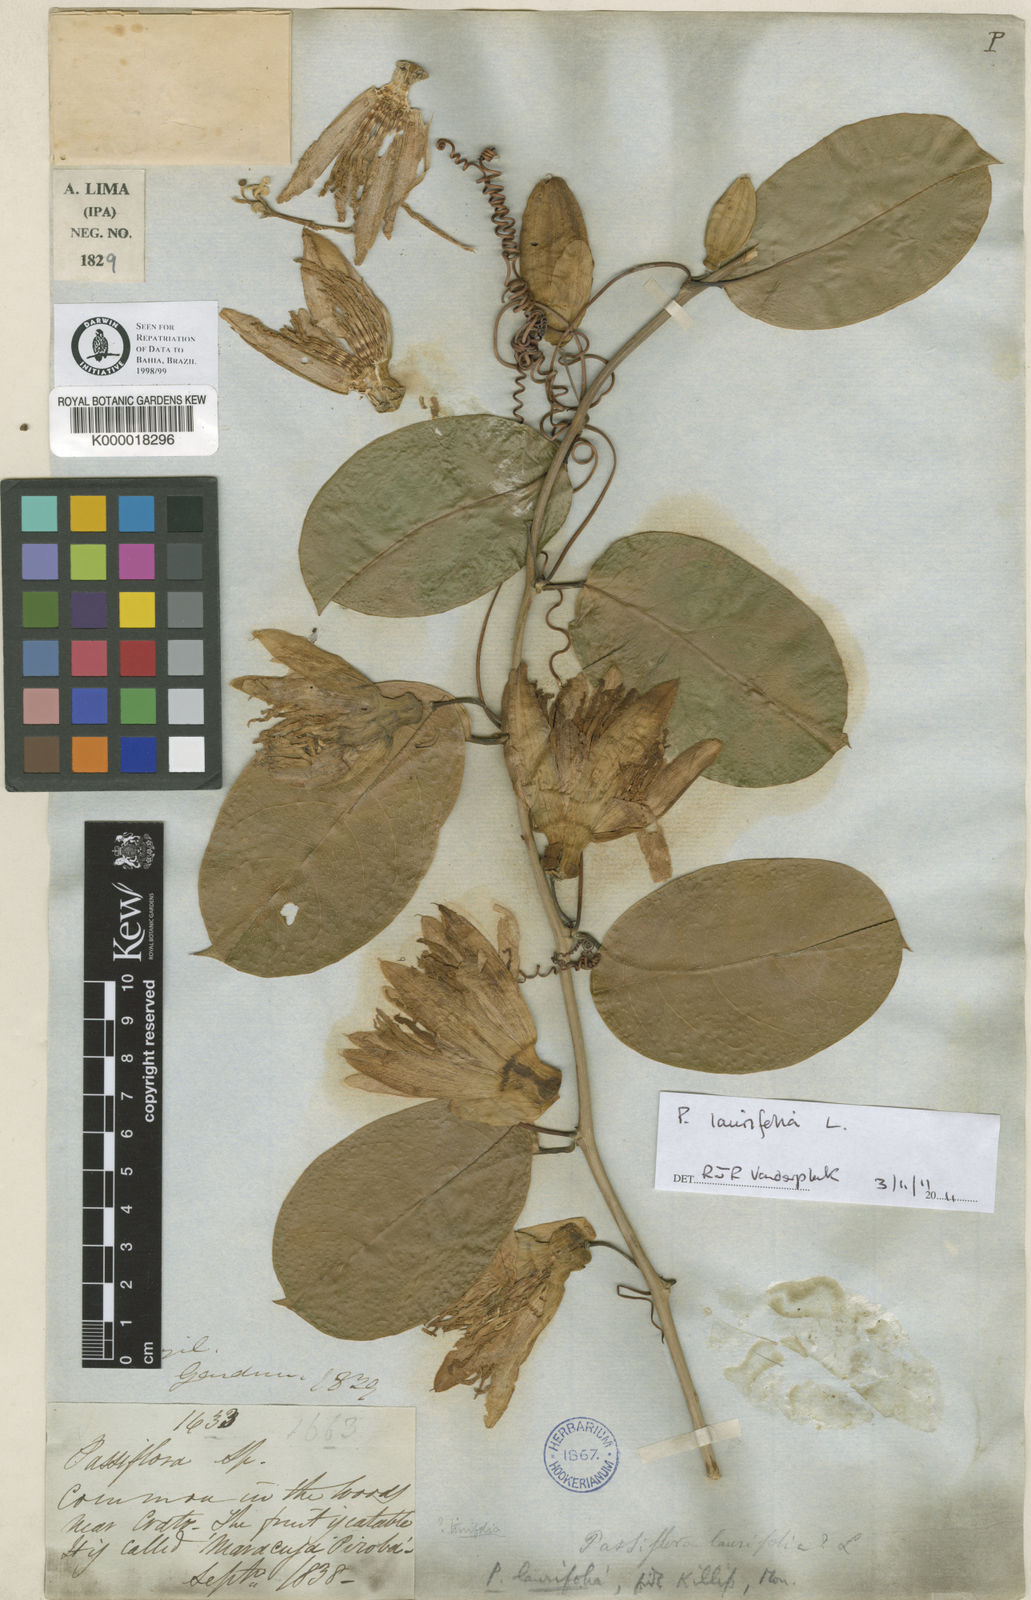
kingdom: Plantae
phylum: Tracheophyta
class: Magnoliopsida
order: Malpighiales
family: Passifloraceae
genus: Passiflora
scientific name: Passiflora laurifolia
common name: Bell apple
